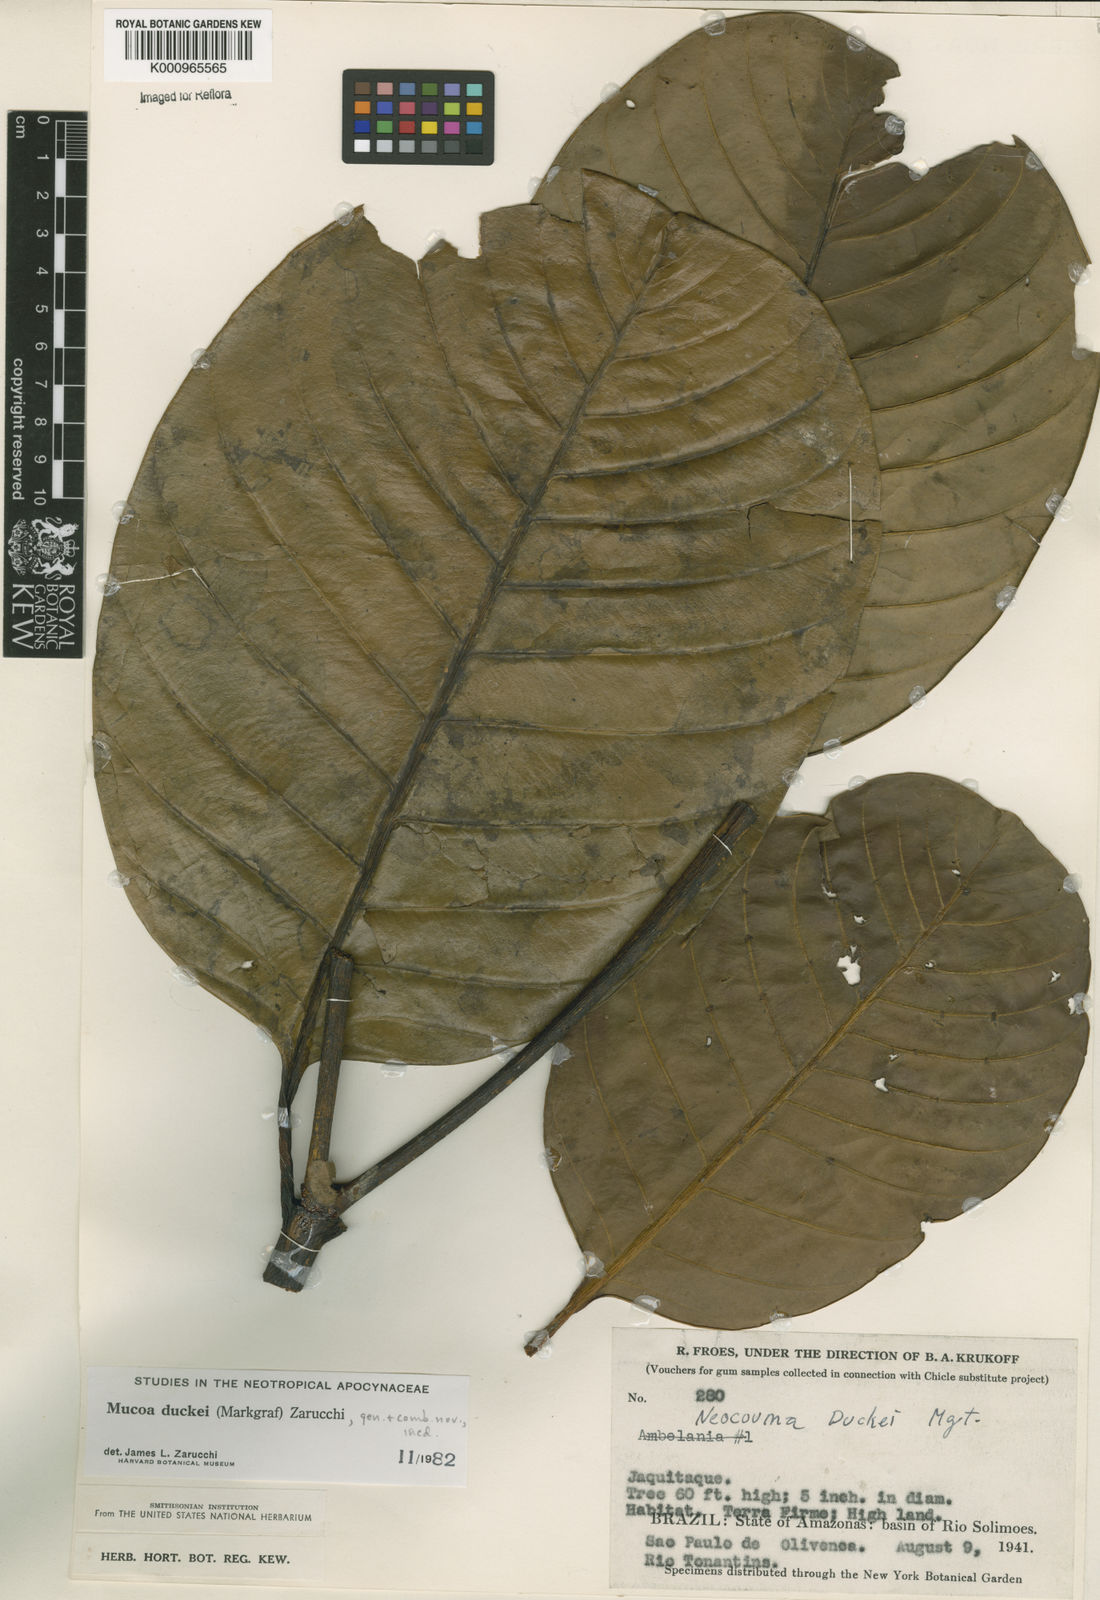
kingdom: Plantae
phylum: Tracheophyta
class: Magnoliopsida
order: Gentianales
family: Apocynaceae
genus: Mucoa
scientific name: Mucoa duckei
